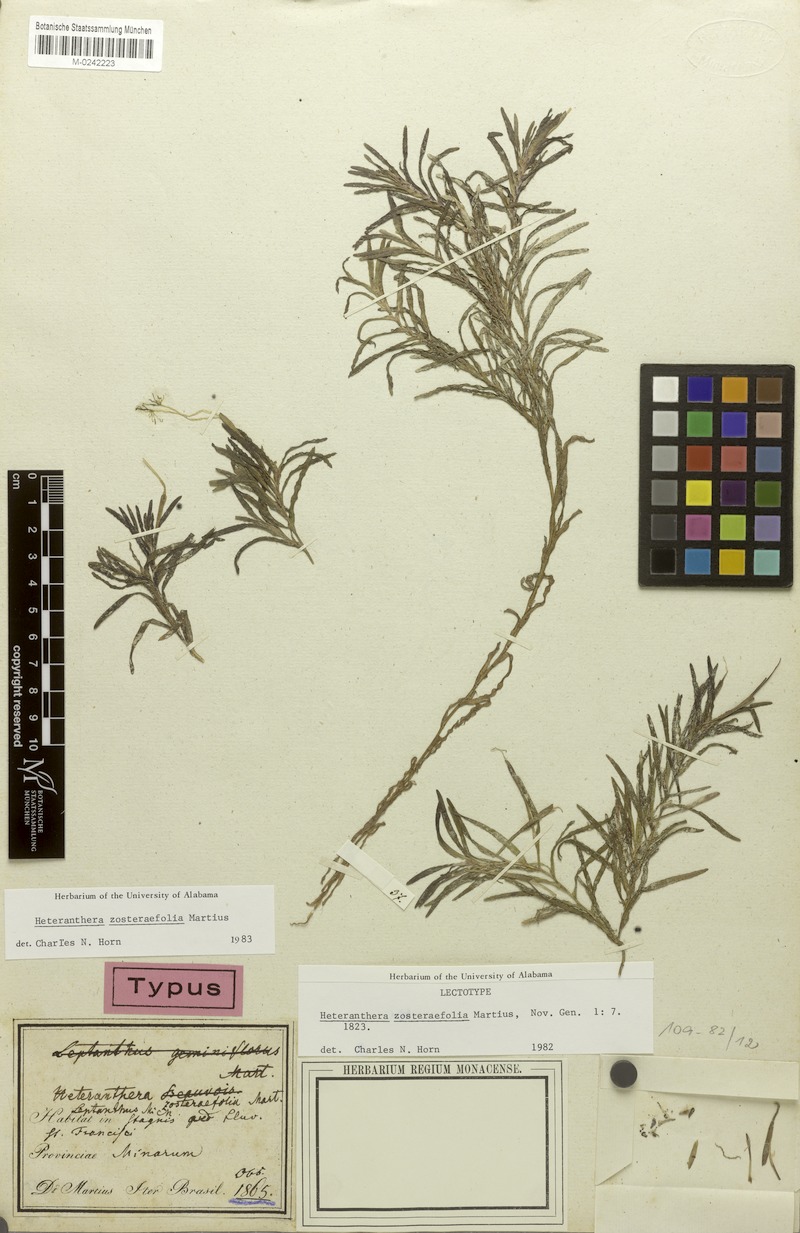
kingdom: Plantae
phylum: Tracheophyta
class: Liliopsida
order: Commelinales
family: Pontederiaceae
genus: Heteranthera
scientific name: Heteranthera zosterifolia
